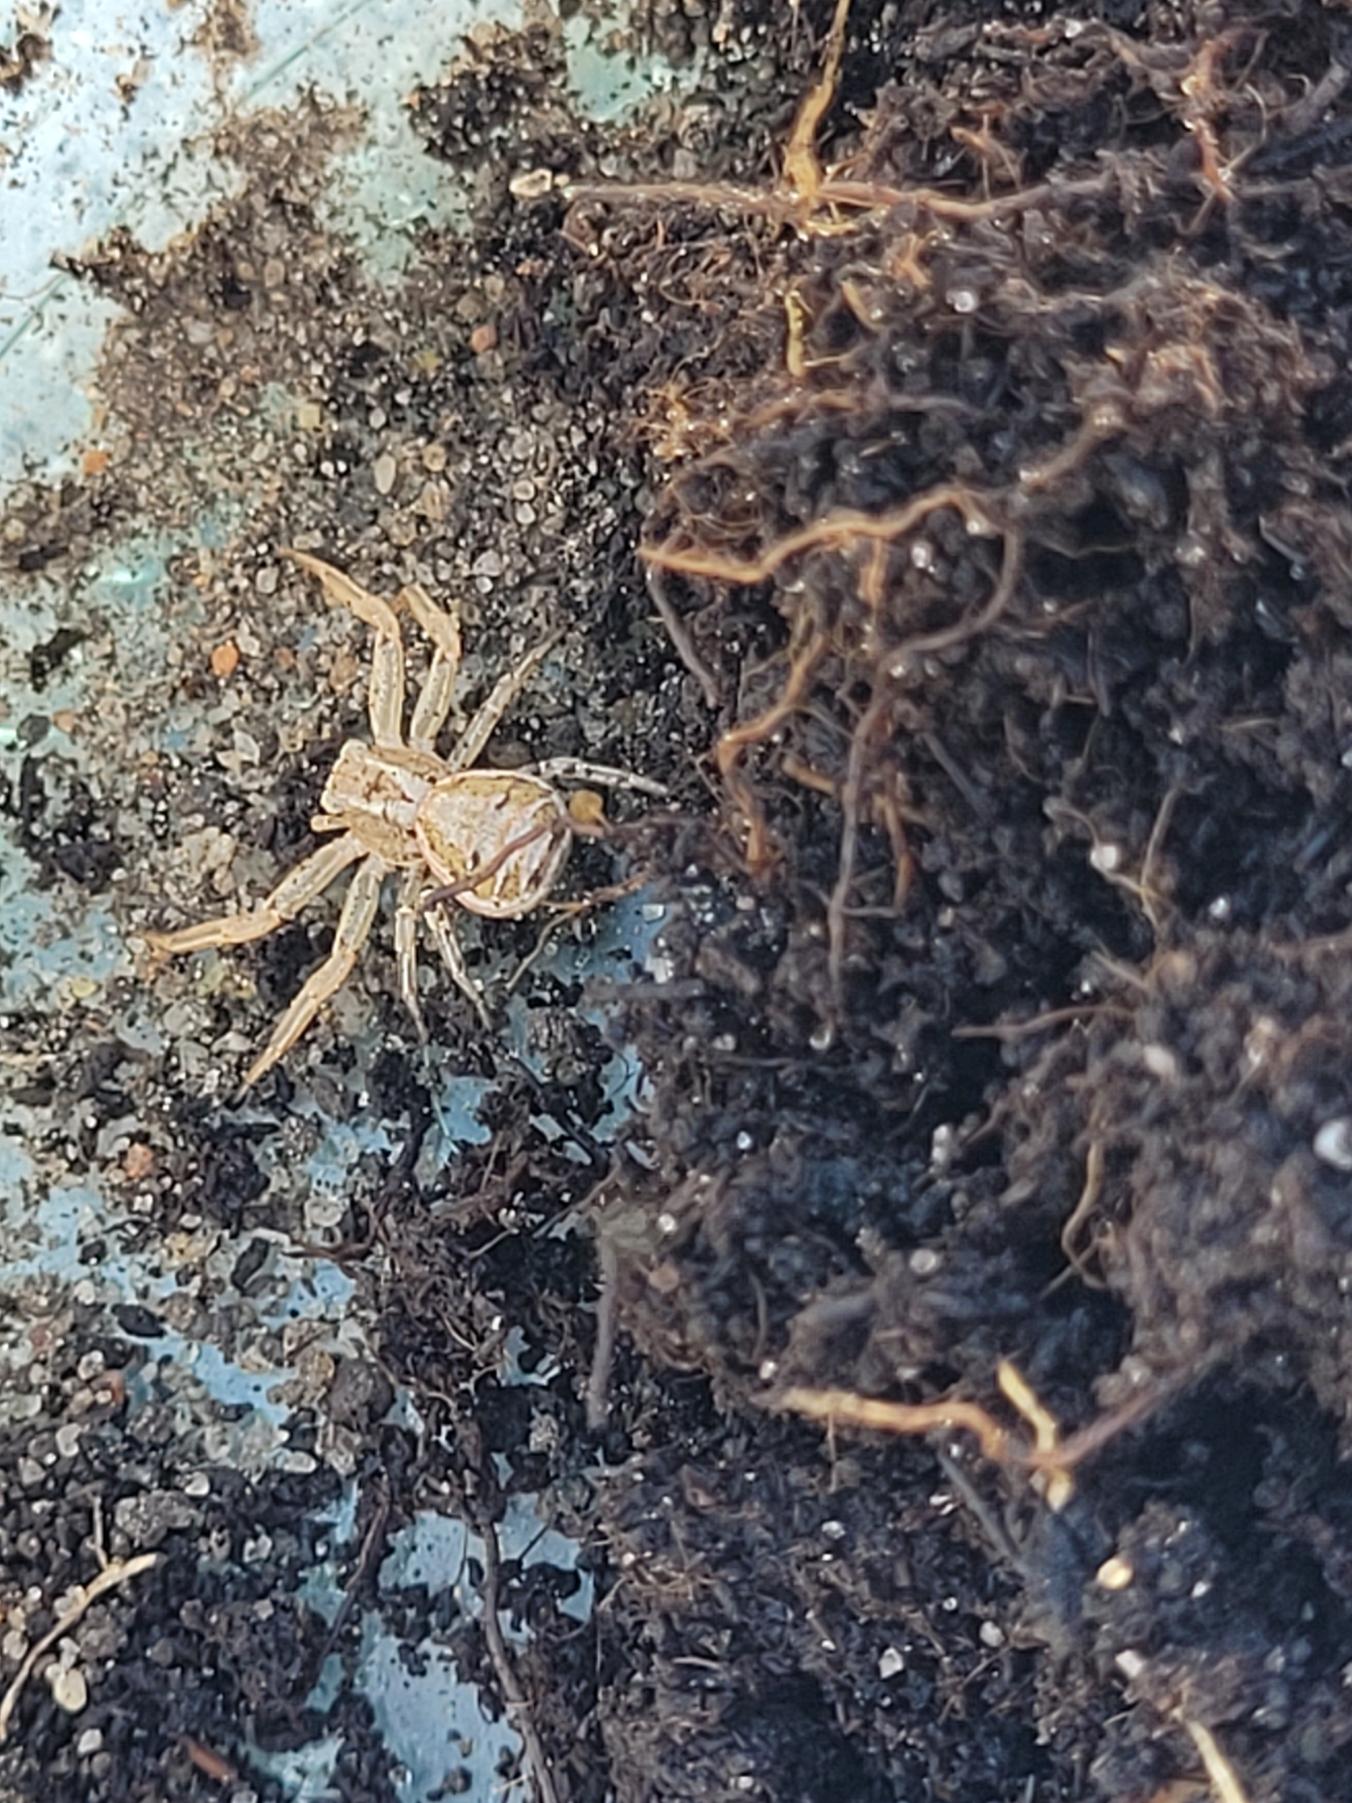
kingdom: Animalia
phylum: Arthropoda
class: Arachnida
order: Araneae
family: Thomisidae
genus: Xysticus
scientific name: Xysticus
